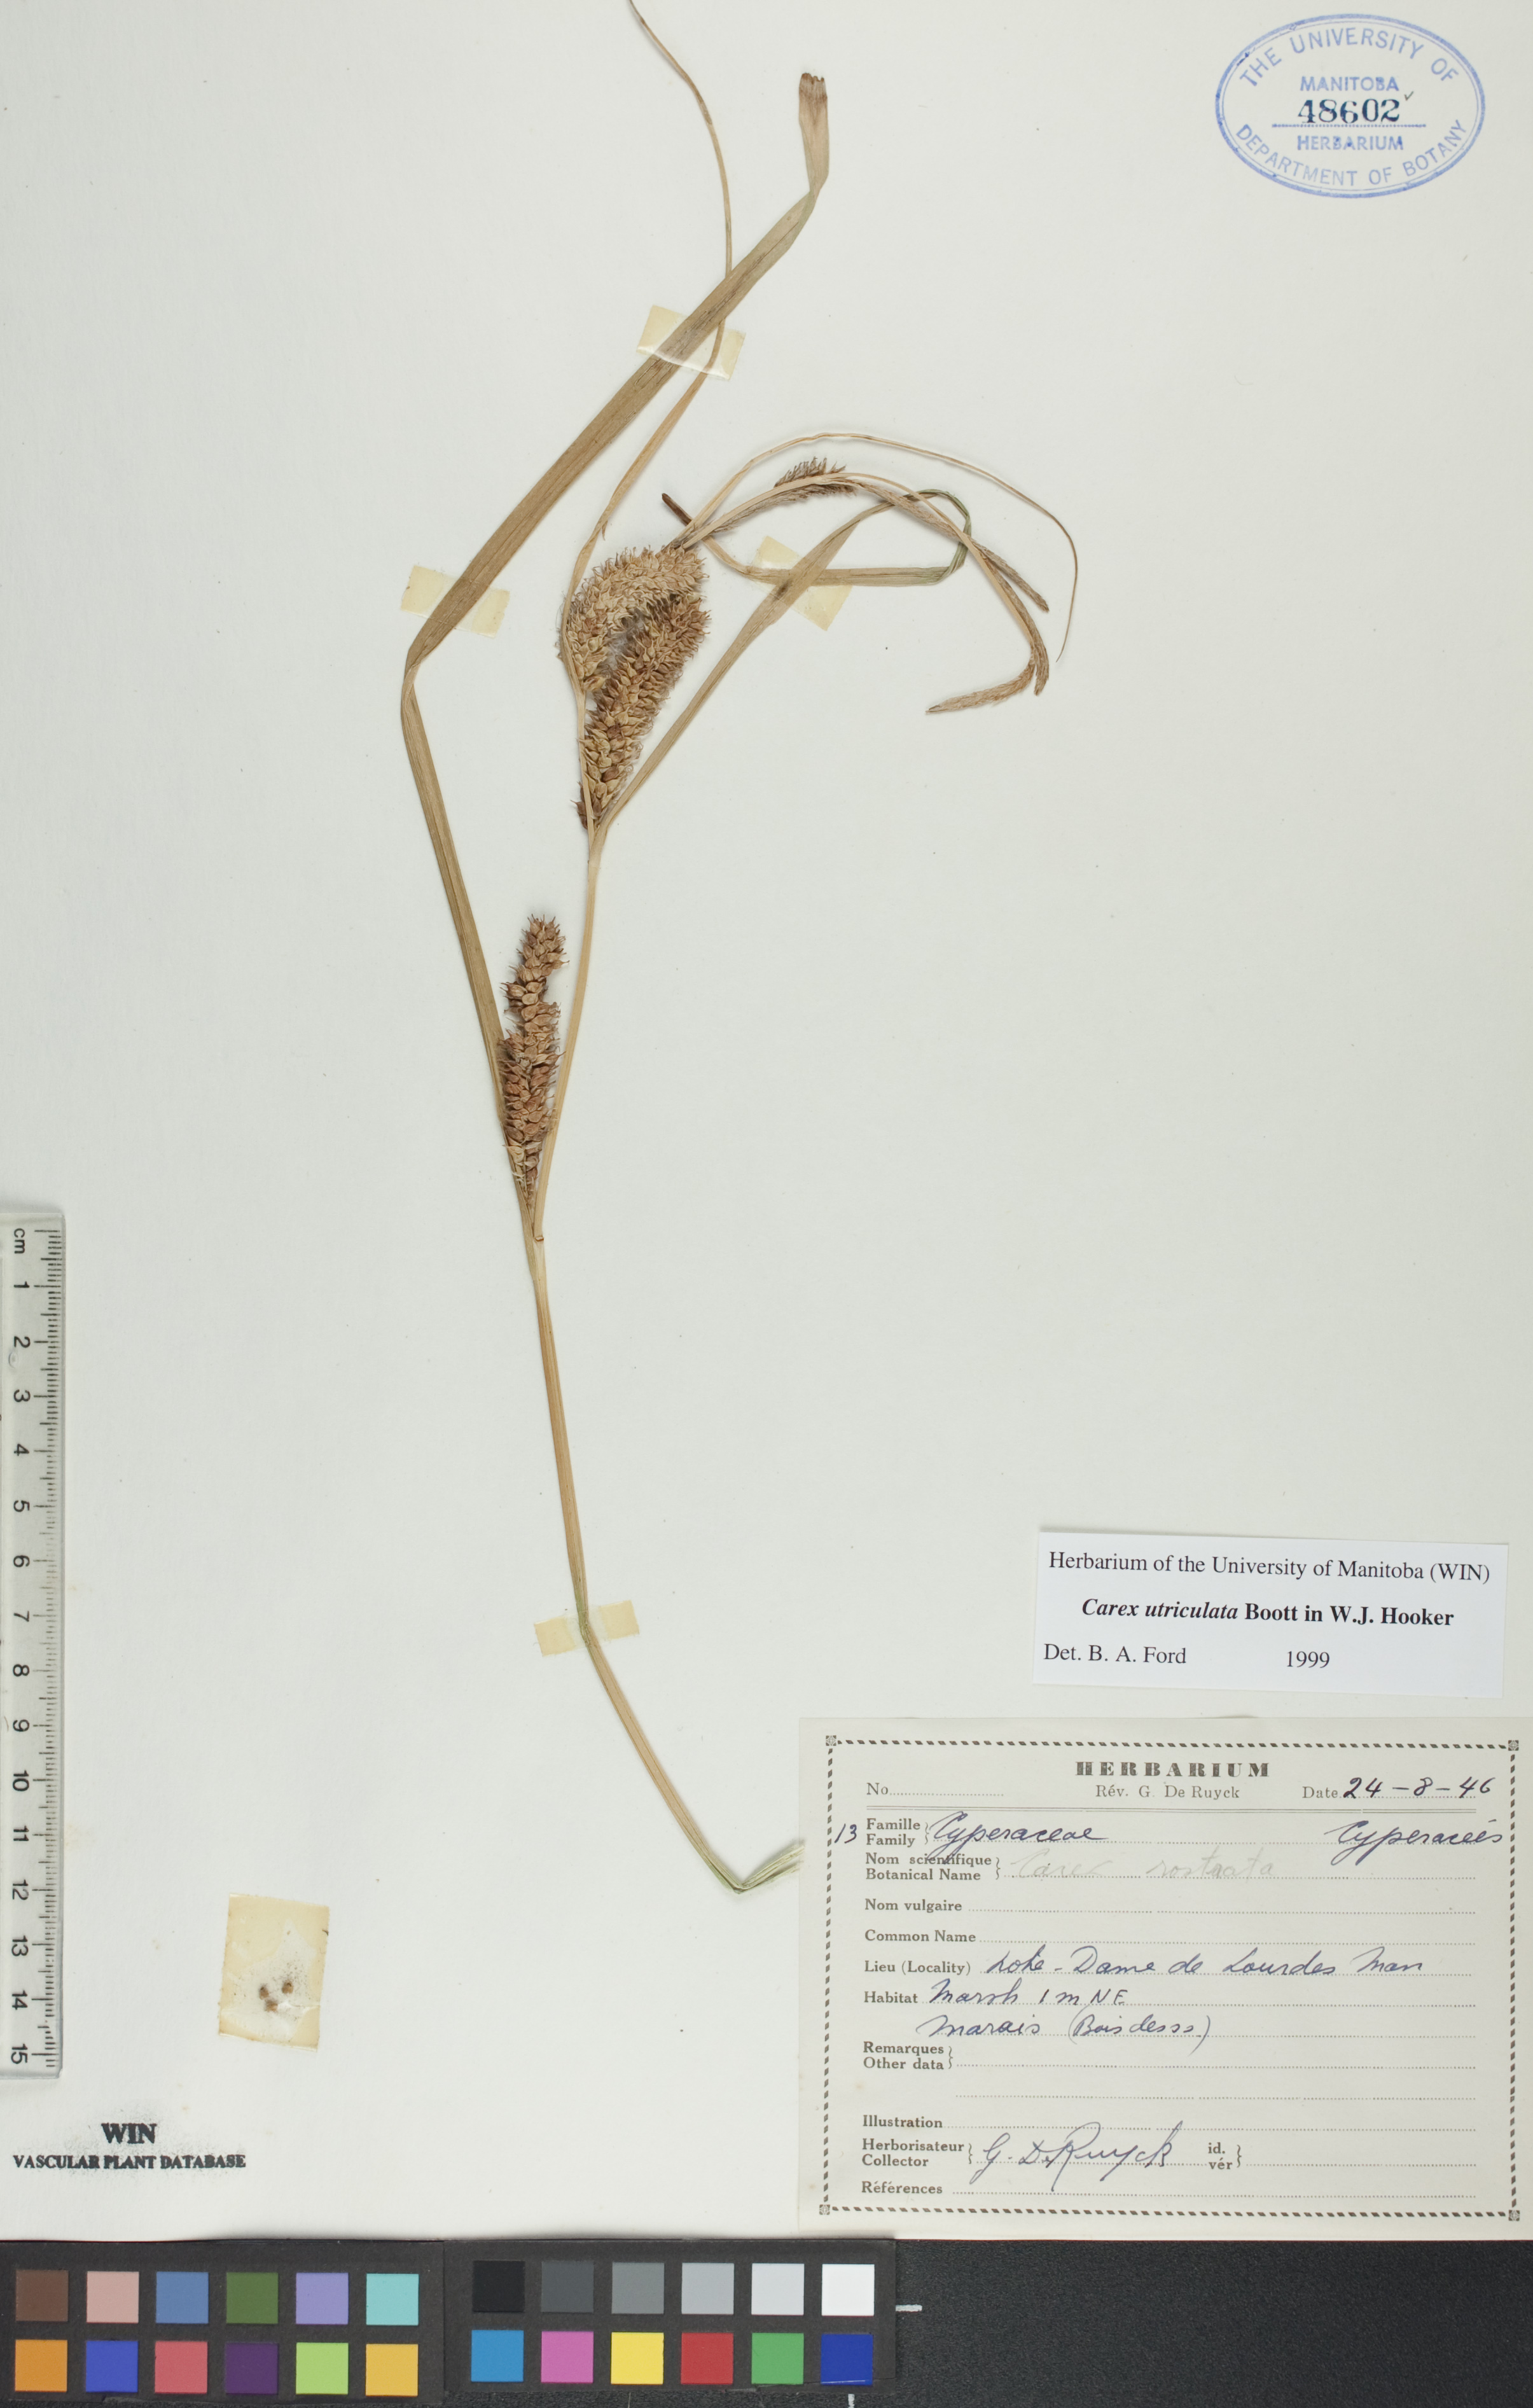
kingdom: Plantae
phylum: Tracheophyta
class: Liliopsida
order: Poales
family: Cyperaceae
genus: Carex
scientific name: Carex utriculata
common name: Beaked sedge
